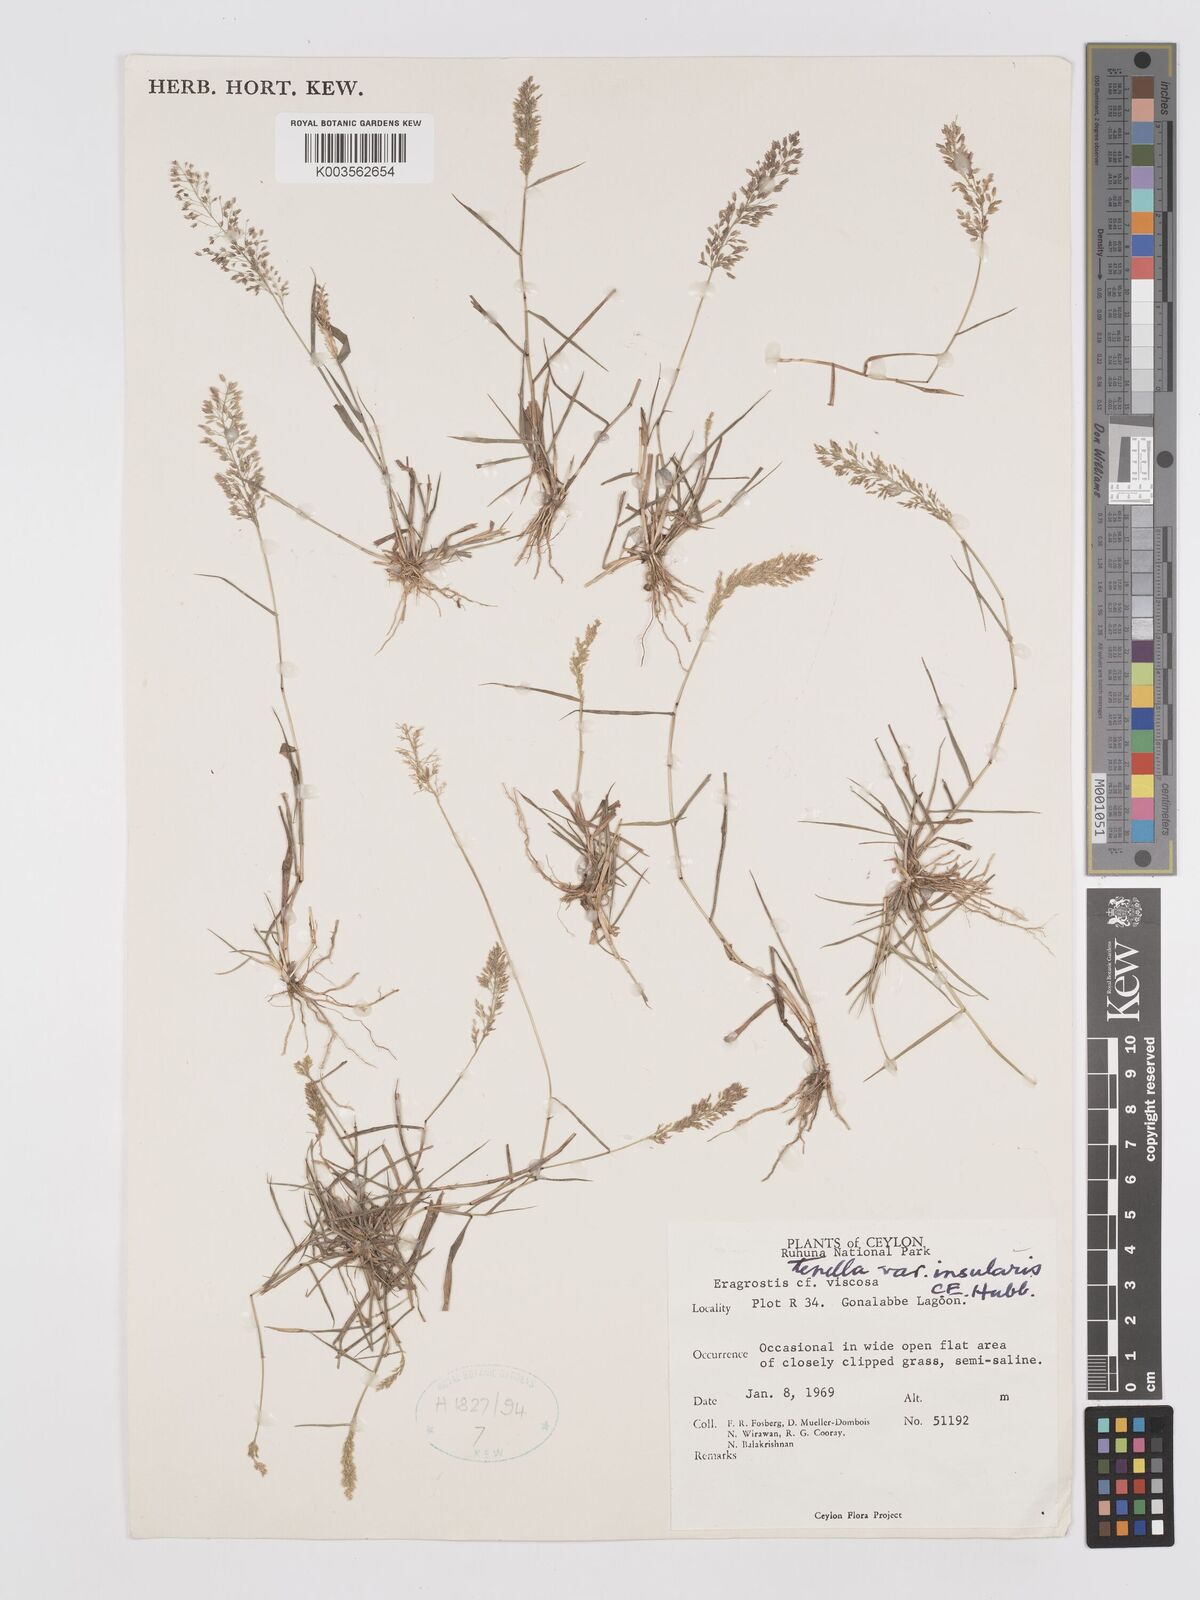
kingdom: Plantae
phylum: Tracheophyta
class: Liliopsida
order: Poales
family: Poaceae
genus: Eragrostis
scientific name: Eragrostis tenella
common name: Japanese lovegrass
